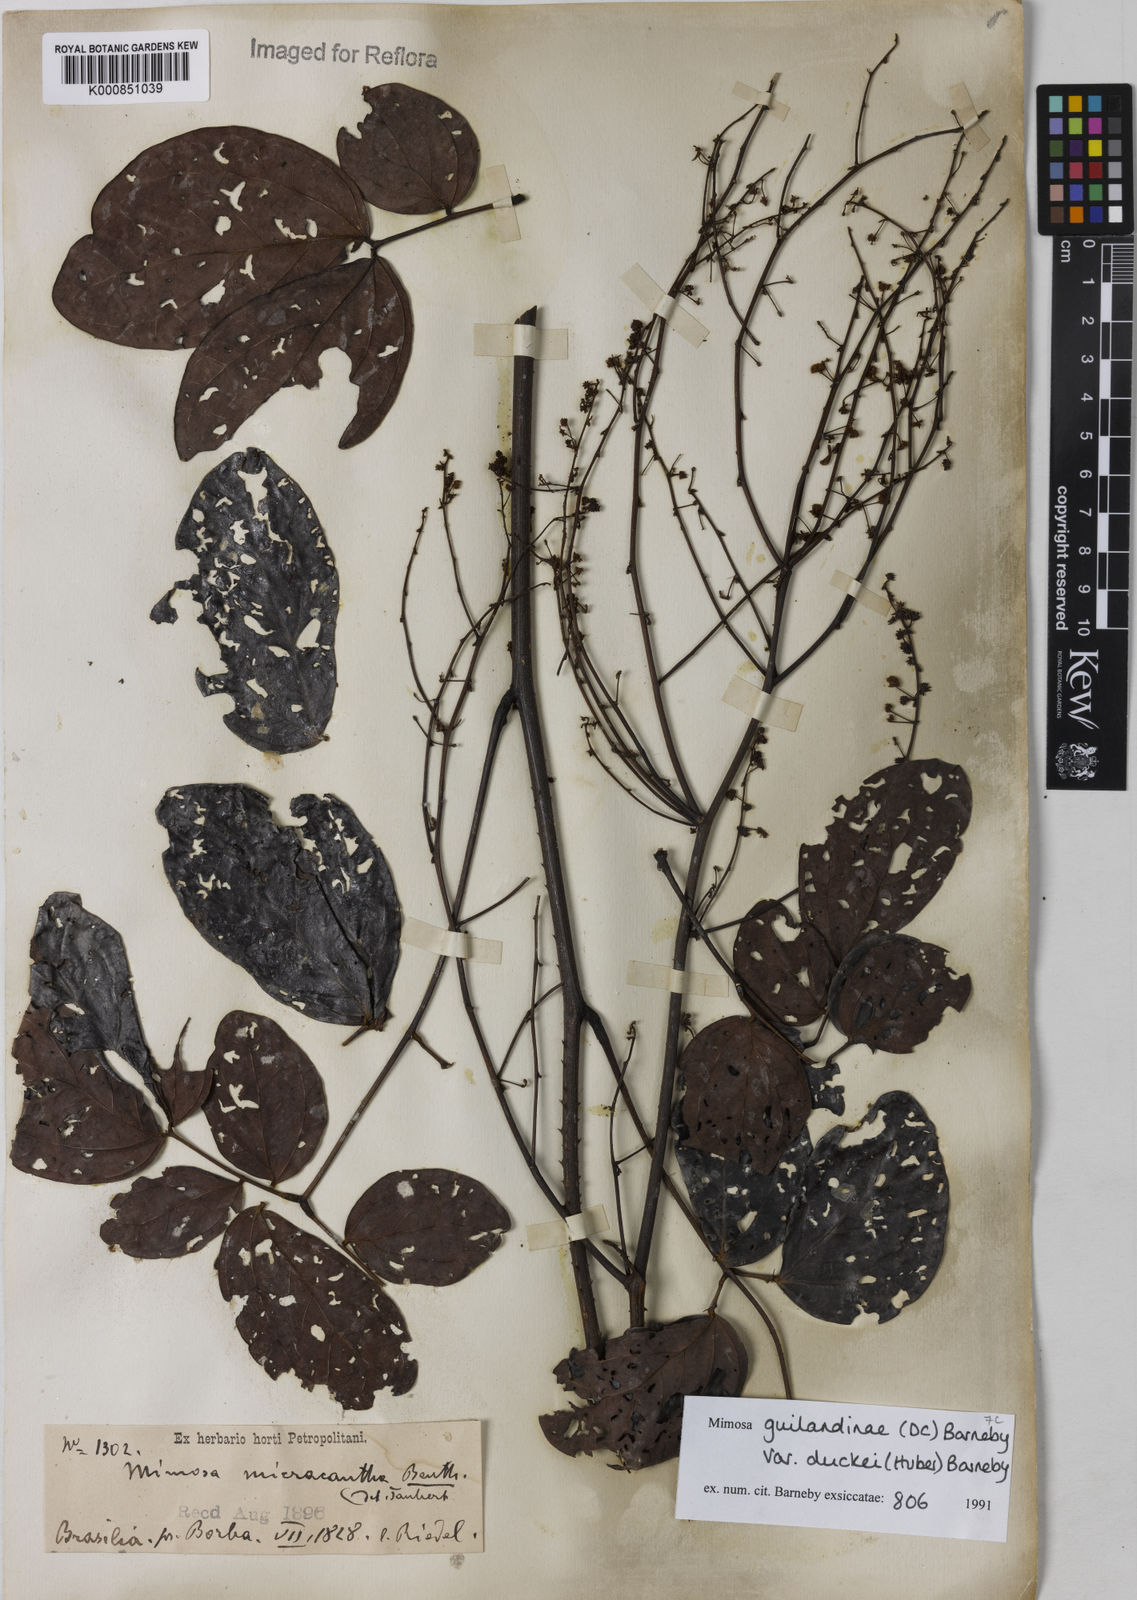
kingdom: Plantae
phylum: Tracheophyta
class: Magnoliopsida
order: Fabales
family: Fabaceae
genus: Mimosa
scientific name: Mimosa guilandinae
